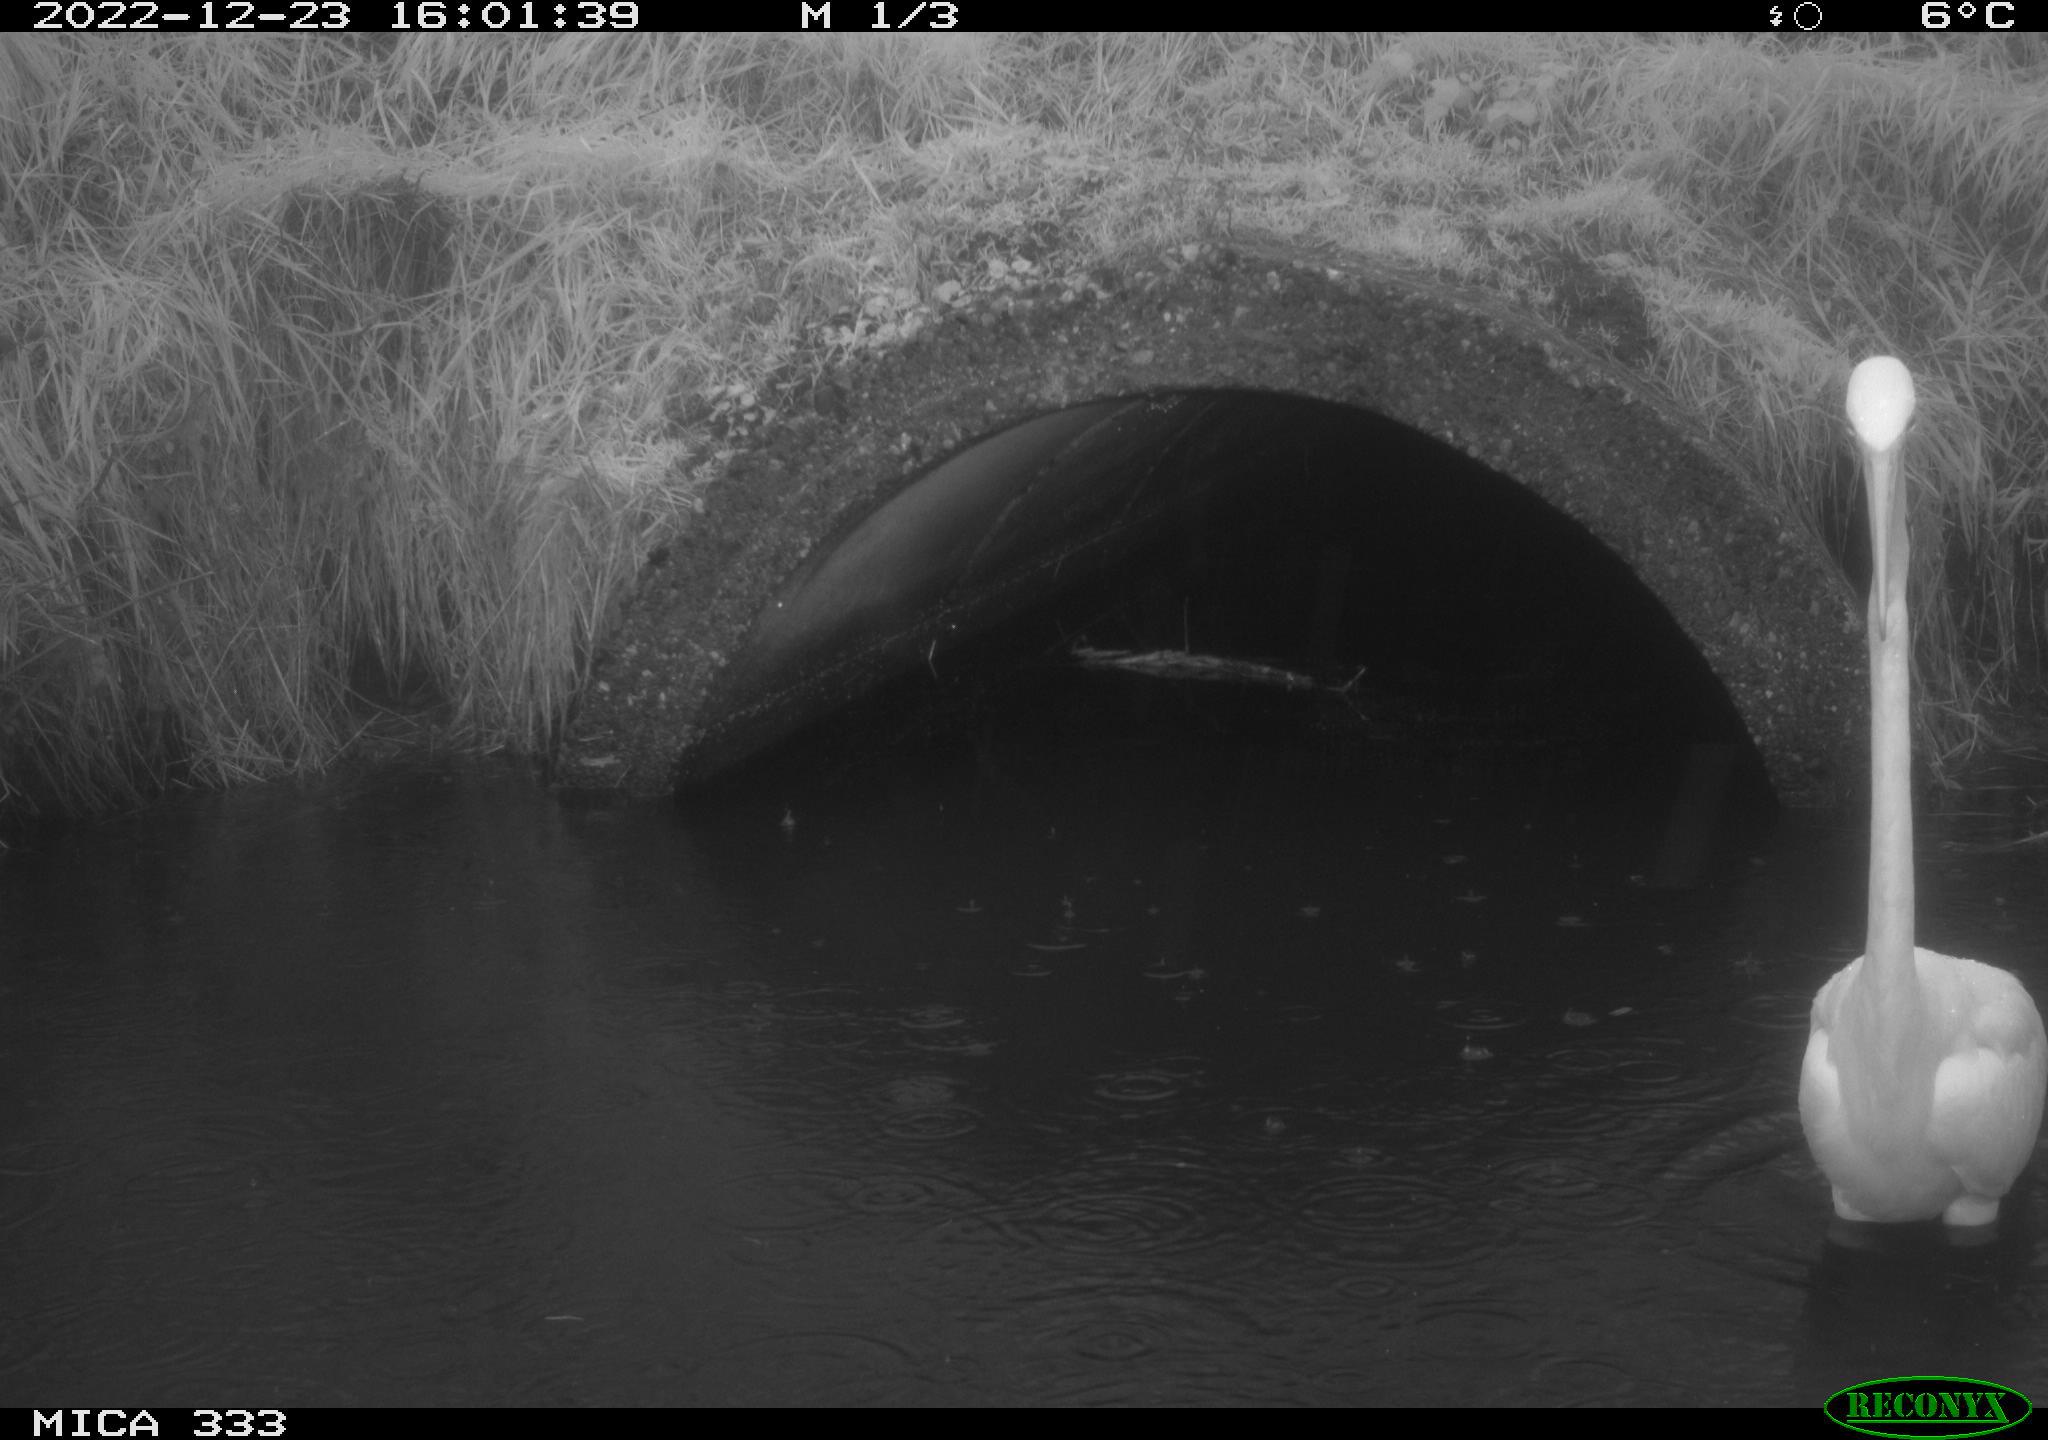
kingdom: Animalia
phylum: Chordata
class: Aves
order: Pelecaniformes
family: Ardeidae
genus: Ardea
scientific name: Ardea alba
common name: Great egret
